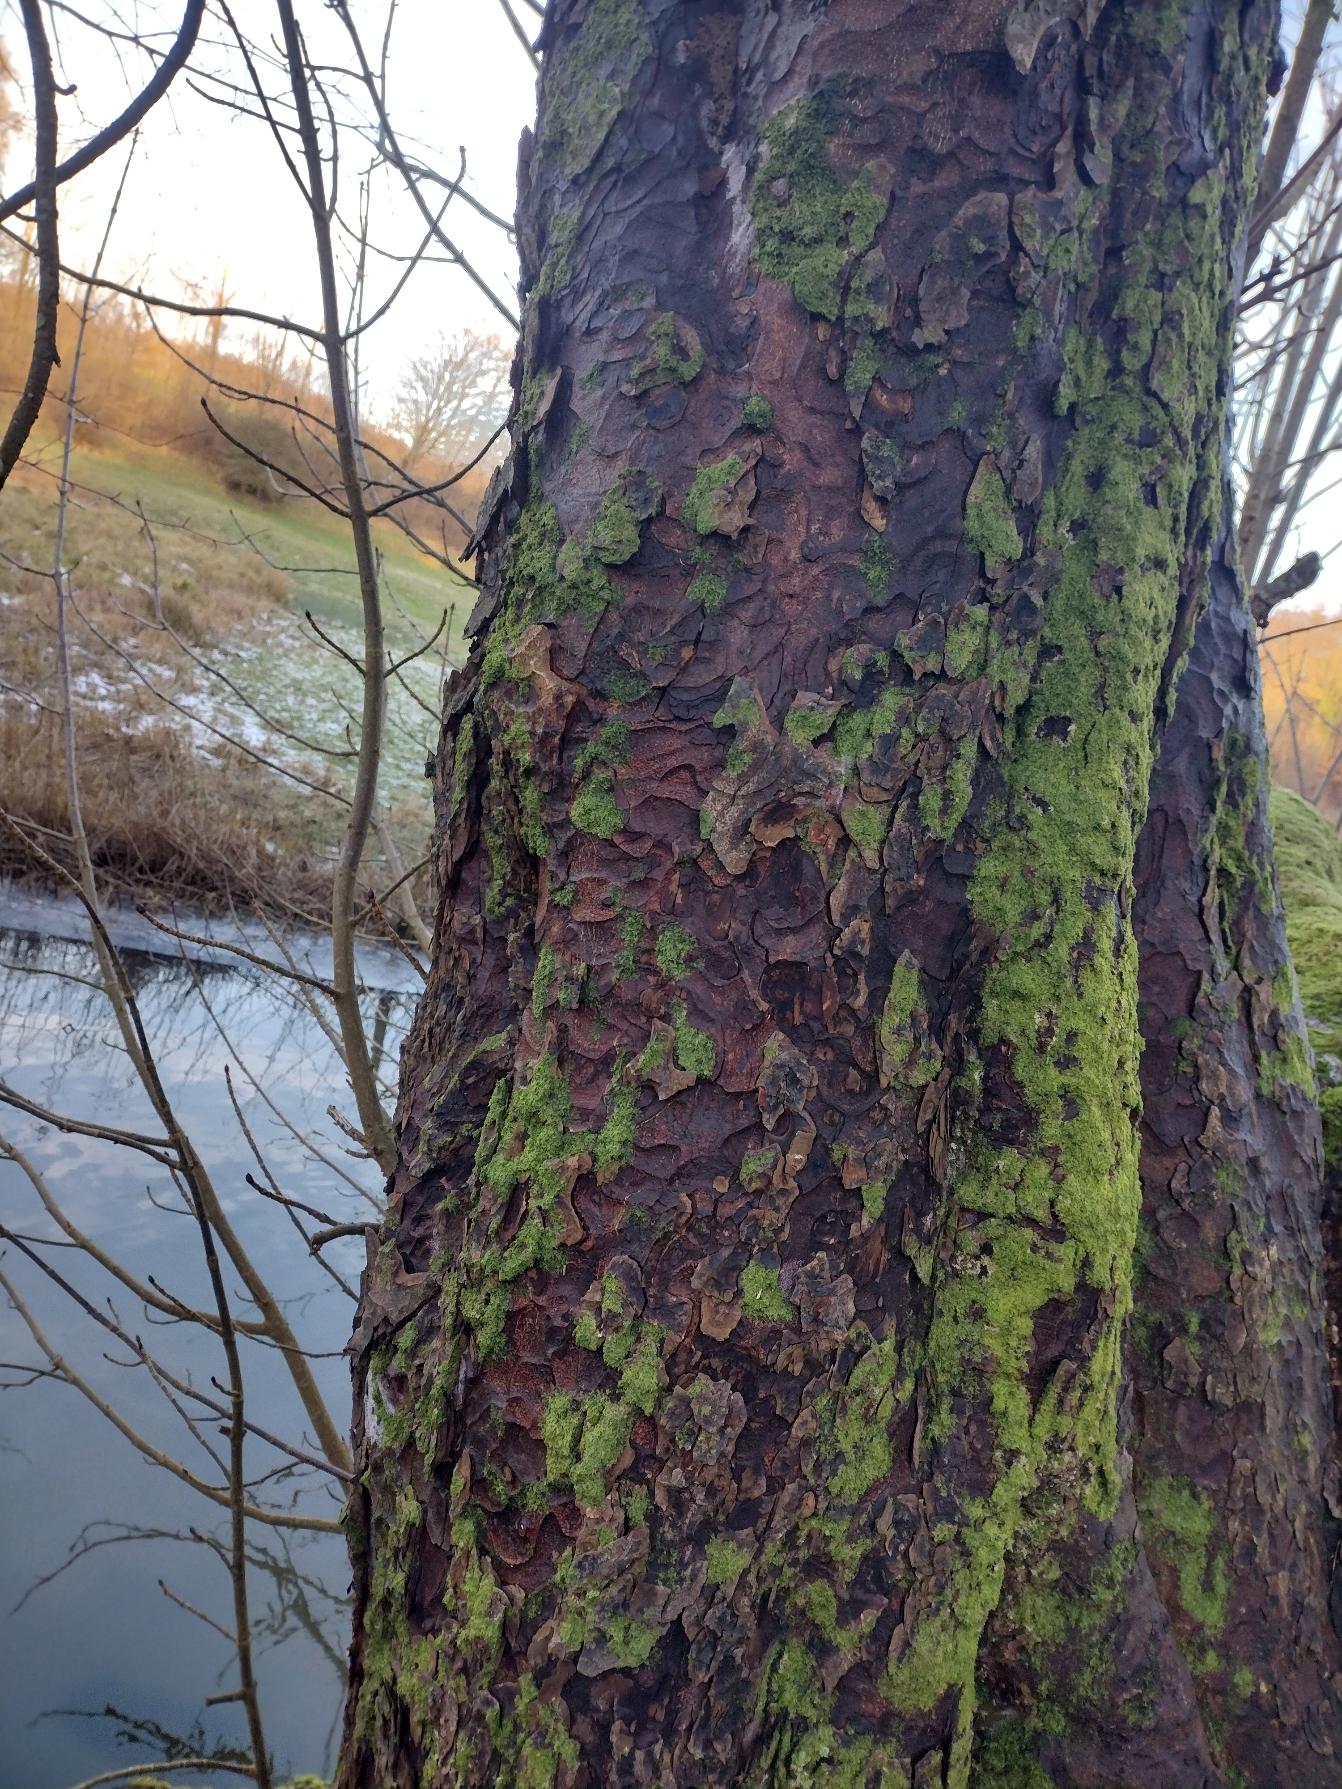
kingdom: Plantae
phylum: Tracheophyta
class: Magnoliopsida
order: Sapindales
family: Sapindaceae
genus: Aesculus
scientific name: Aesculus hippocastanum
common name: Hestekastanie
